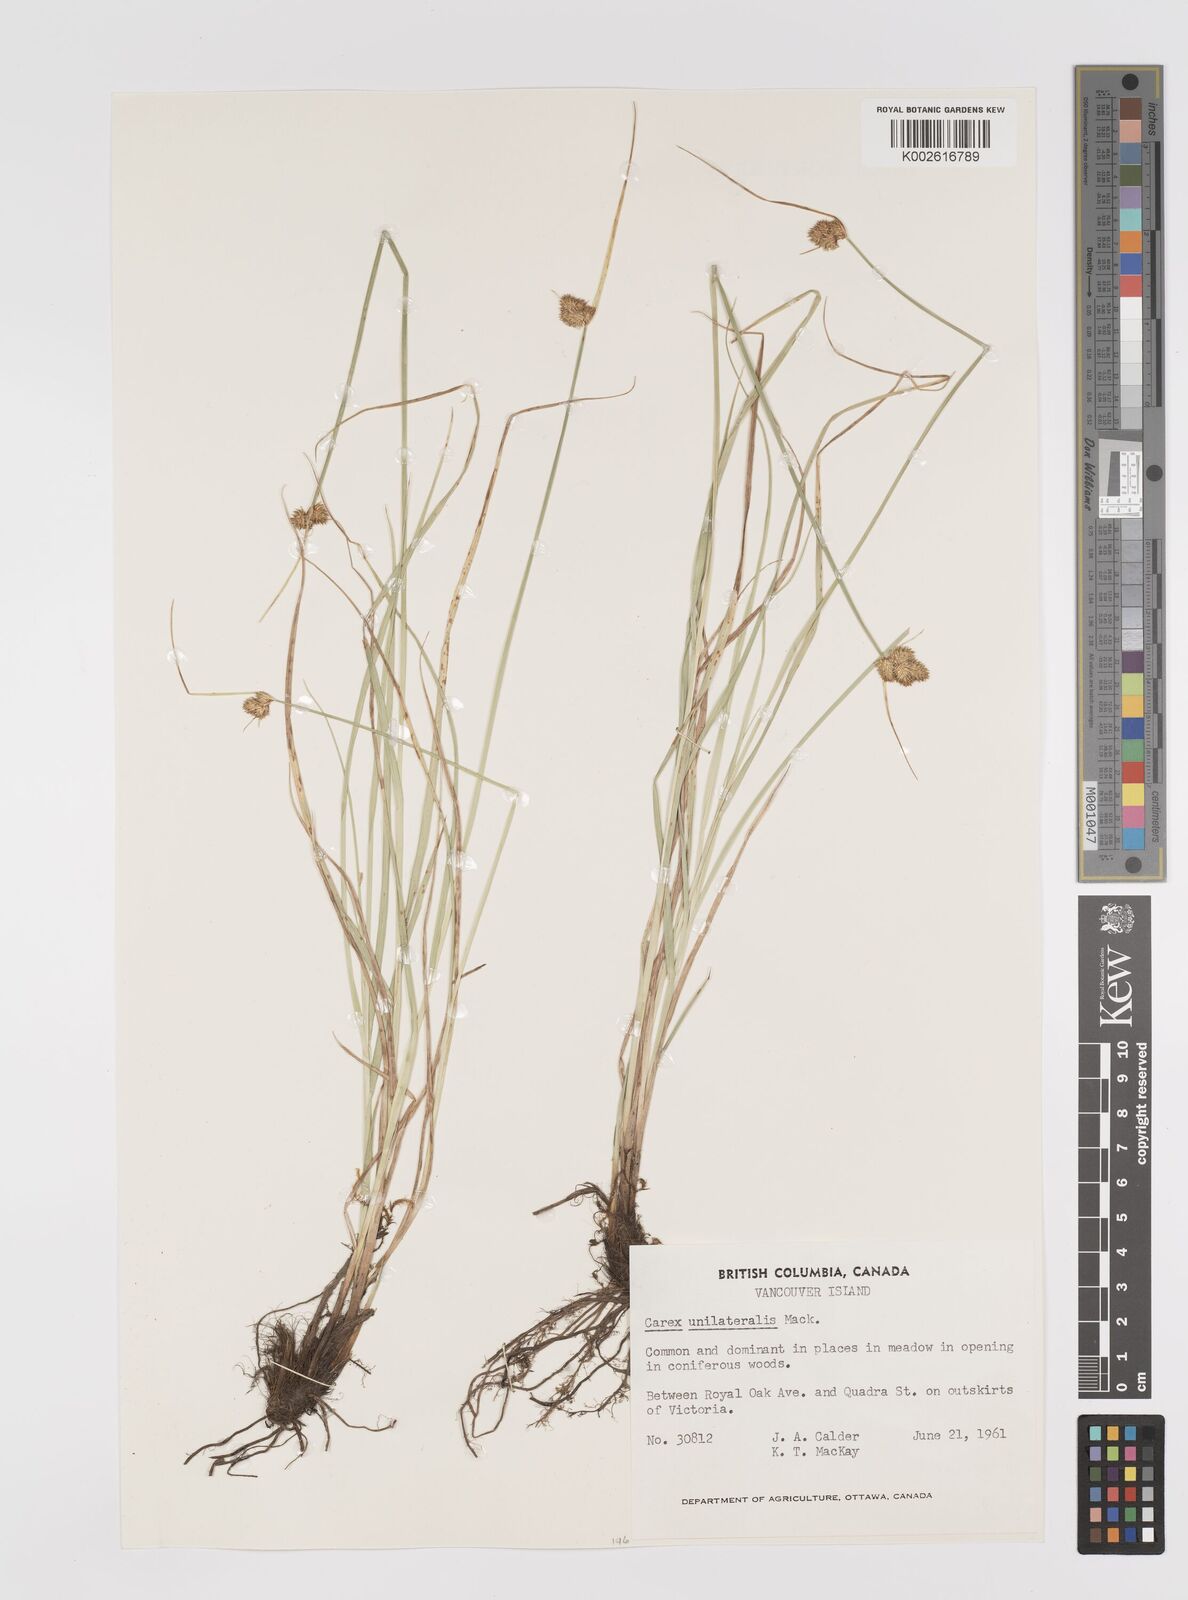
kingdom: Plantae
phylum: Tracheophyta
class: Liliopsida
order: Poales
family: Cyperaceae
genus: Carex
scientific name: Carex unilateralis
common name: Lateral sedge
